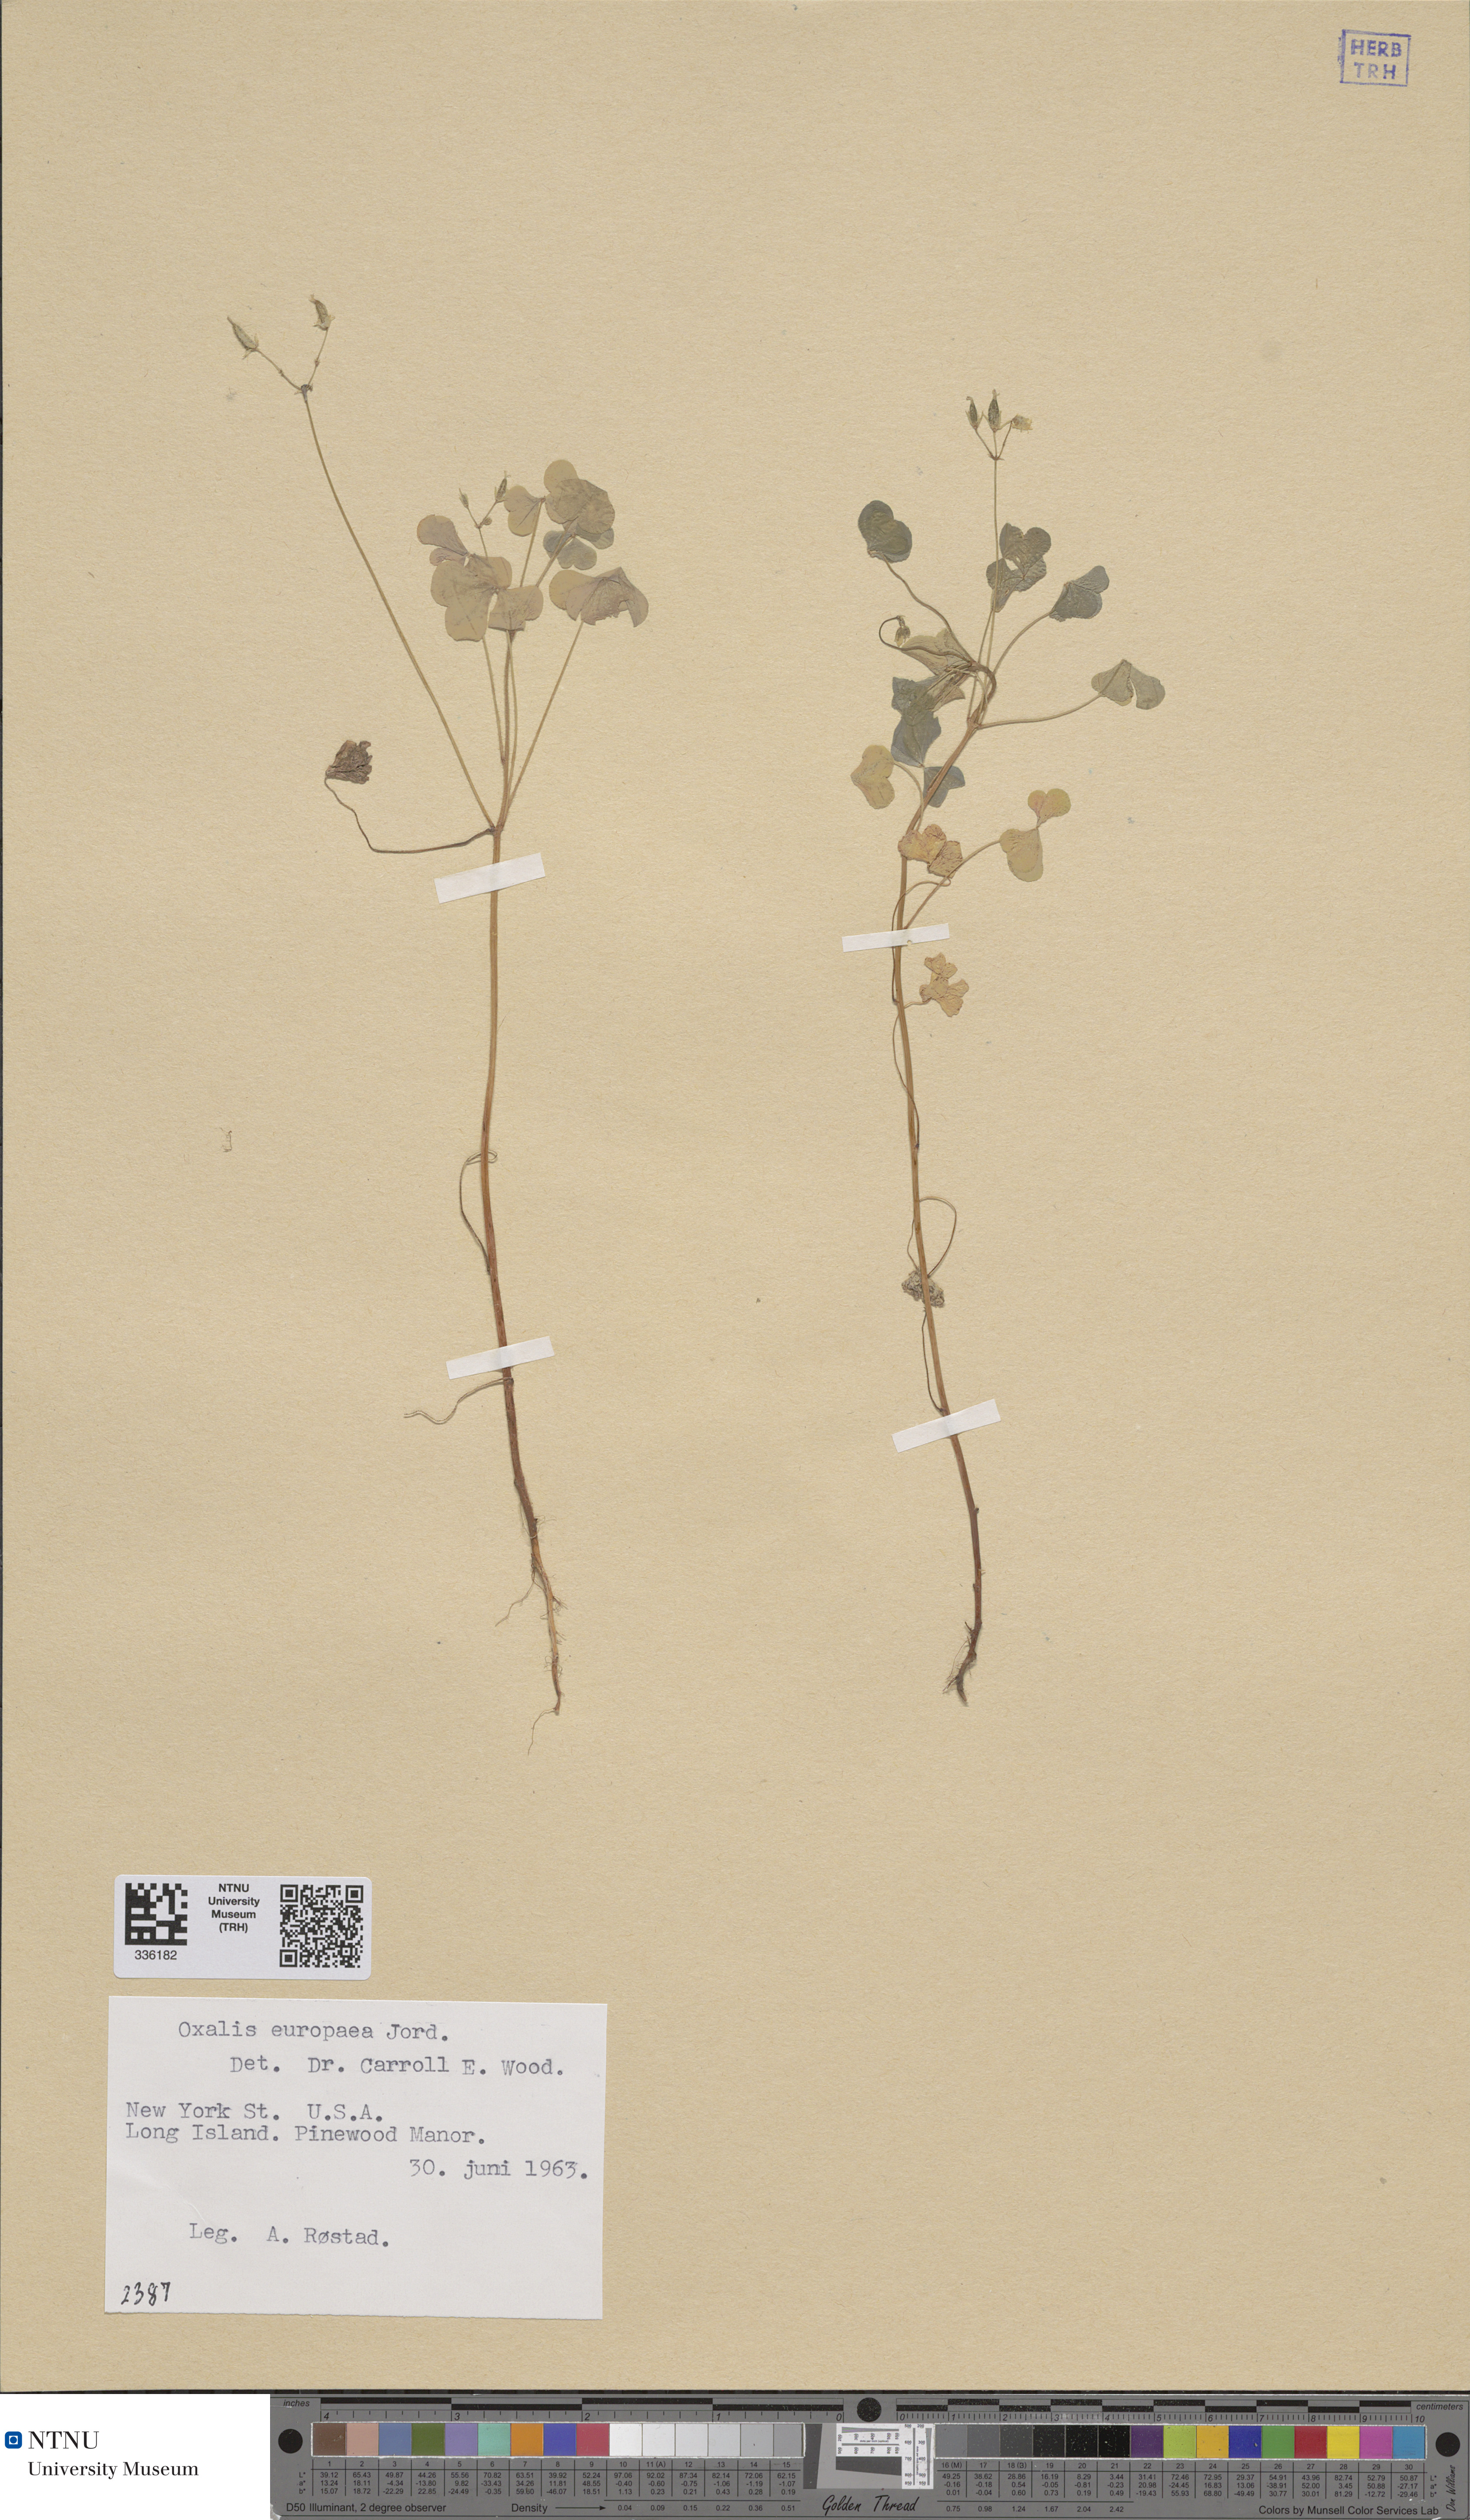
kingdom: Plantae
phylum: Tracheophyta
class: Magnoliopsida
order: Oxalidales
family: Oxalidaceae
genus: Oxalis
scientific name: Oxalis stricta
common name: Upright yellow-sorrel
